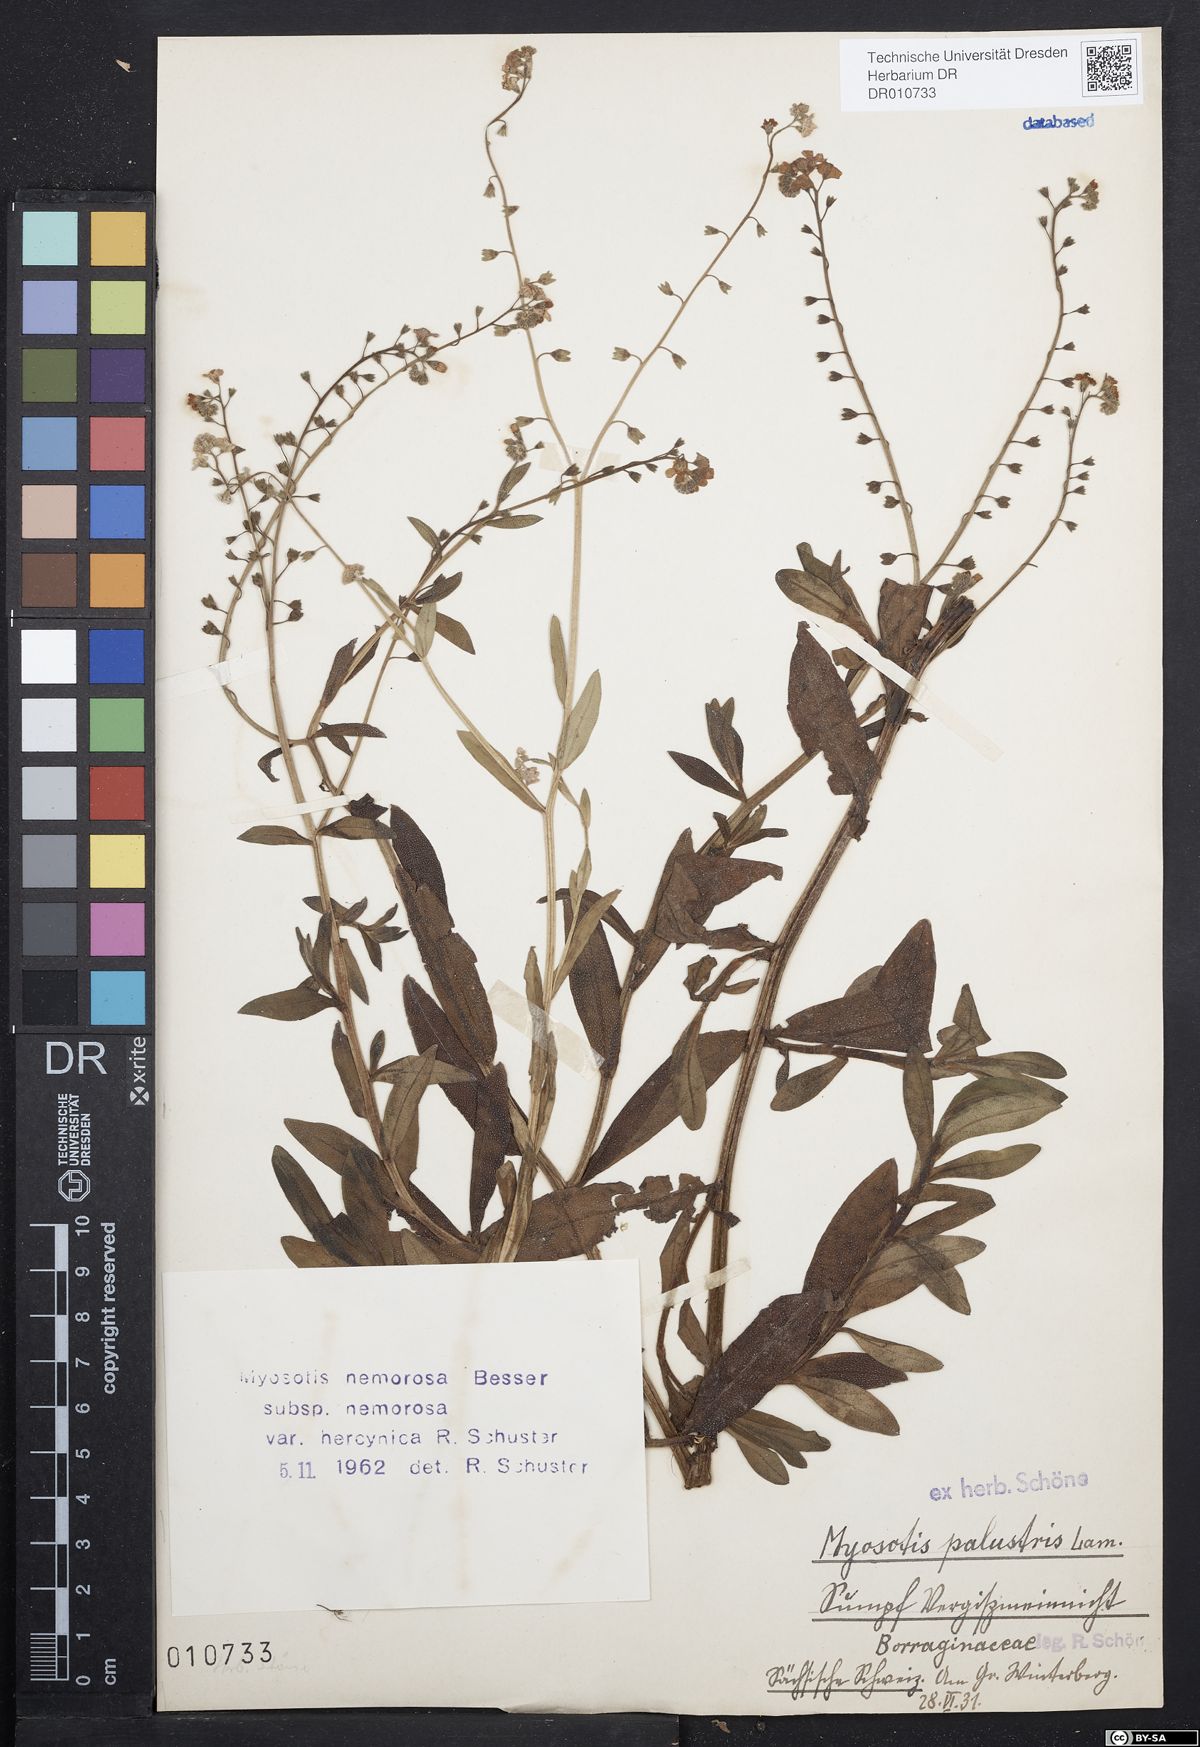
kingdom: Plantae
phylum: Tracheophyta
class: Magnoliopsida
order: Boraginales
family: Boraginaceae
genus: Myosotis
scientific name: Myosotis nemorosa
